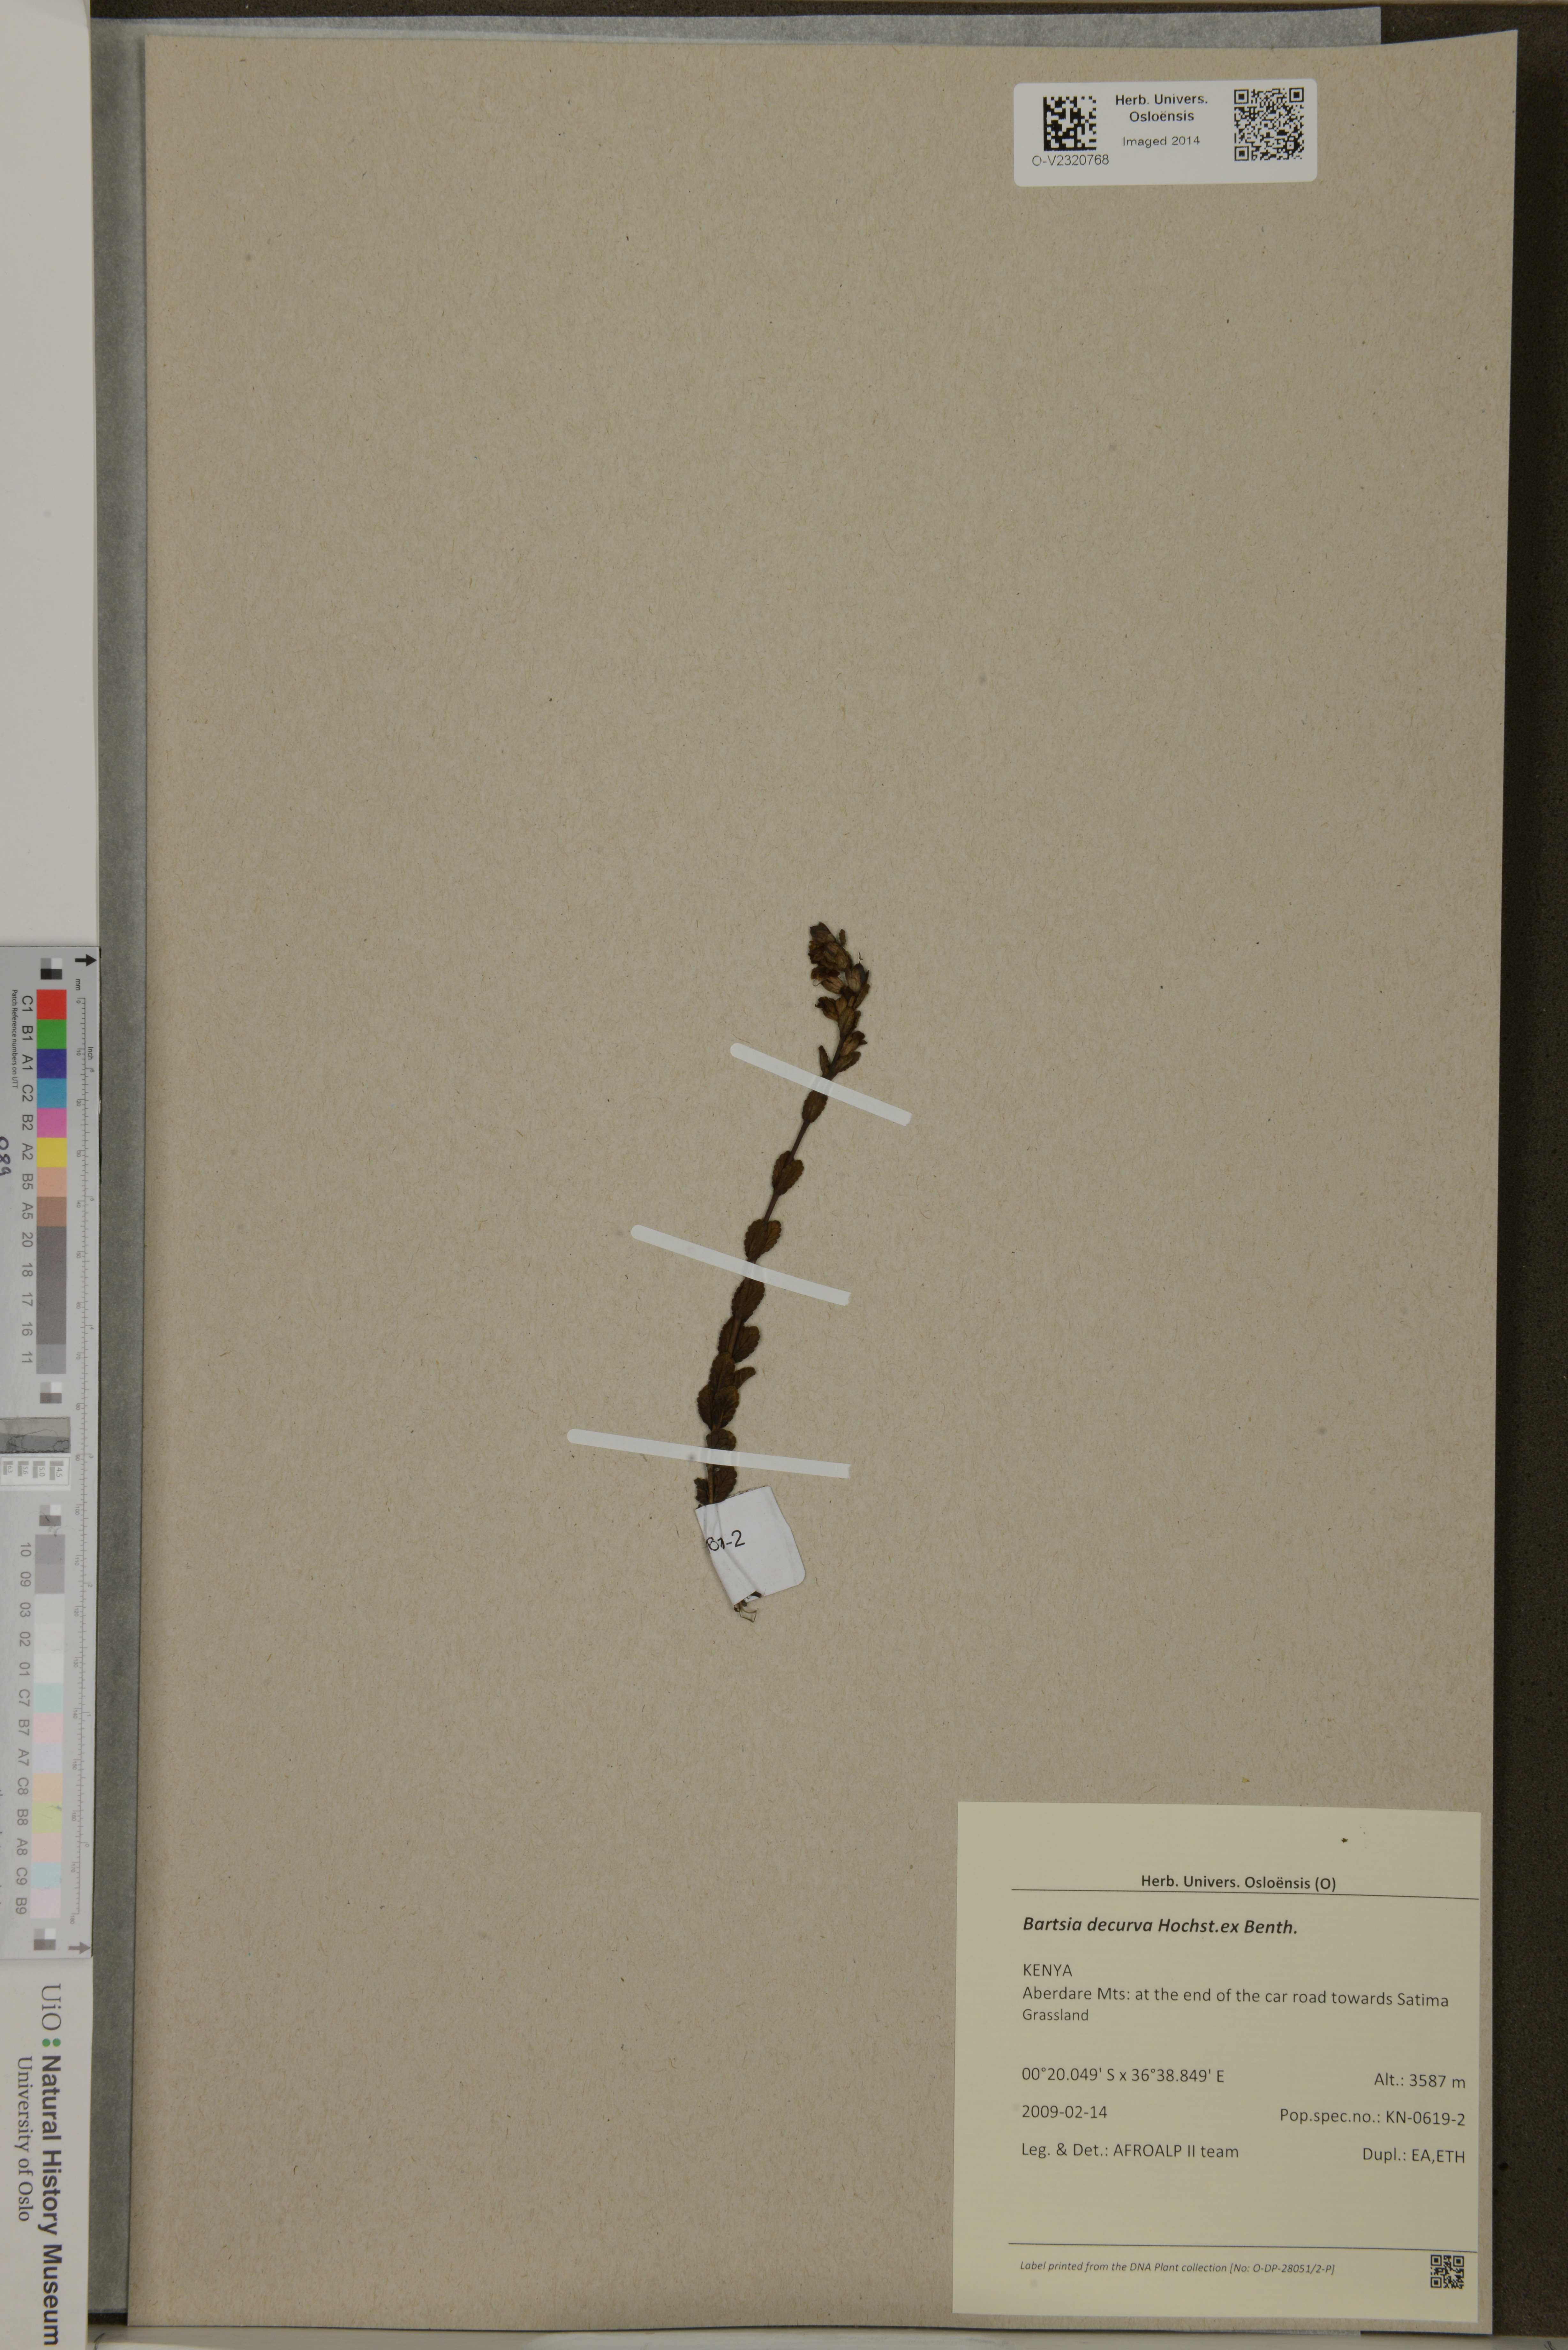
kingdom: Plantae
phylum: Tracheophyta
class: Magnoliopsida
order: Lamiales
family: Orobanchaceae
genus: Hedbergia
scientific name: Hedbergia decurva
